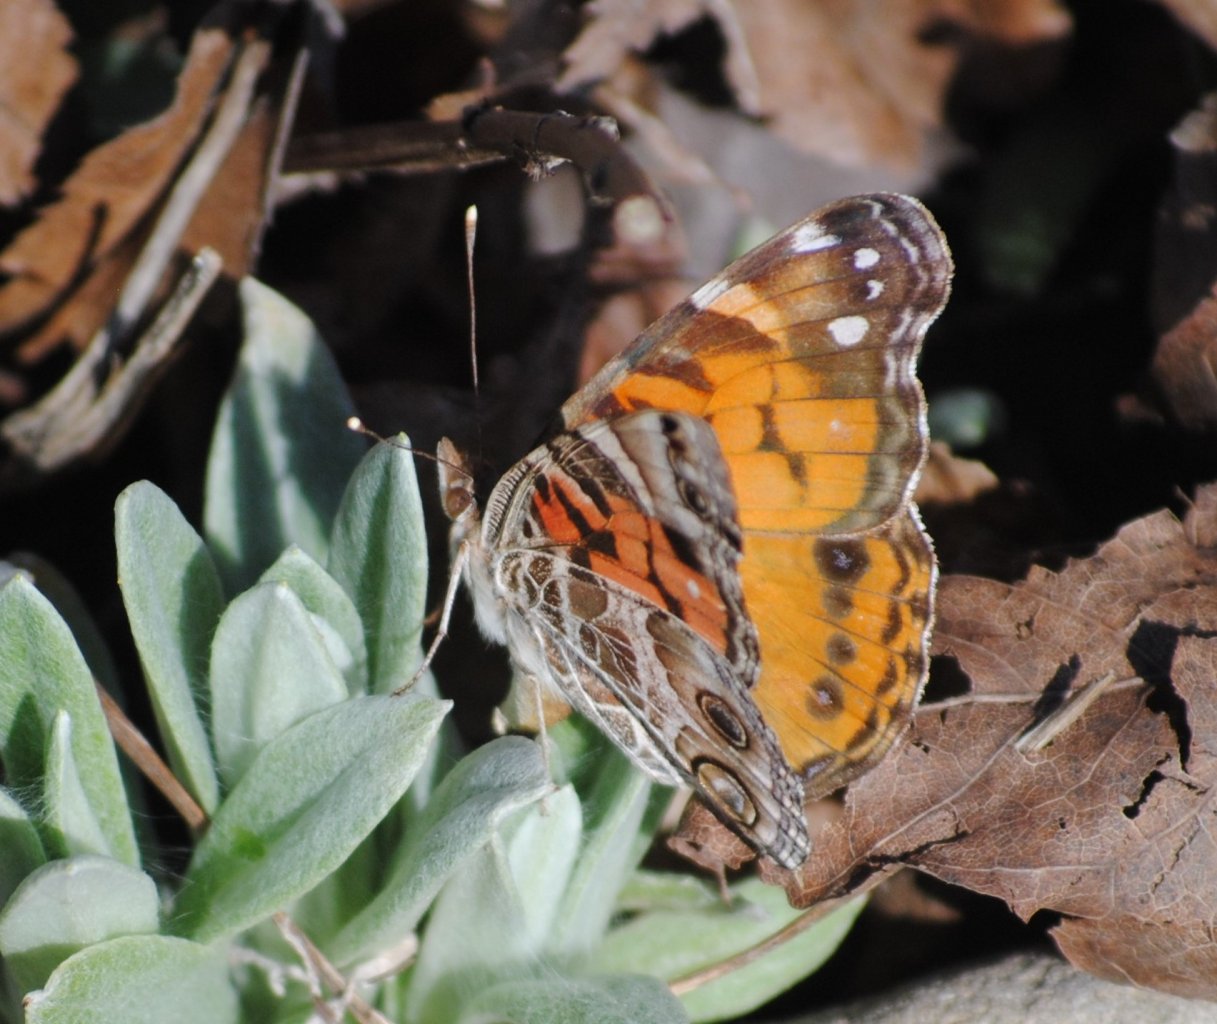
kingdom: Animalia
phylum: Arthropoda
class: Insecta
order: Lepidoptera
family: Nymphalidae
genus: Vanessa
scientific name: Vanessa virginiensis
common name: American Lady
